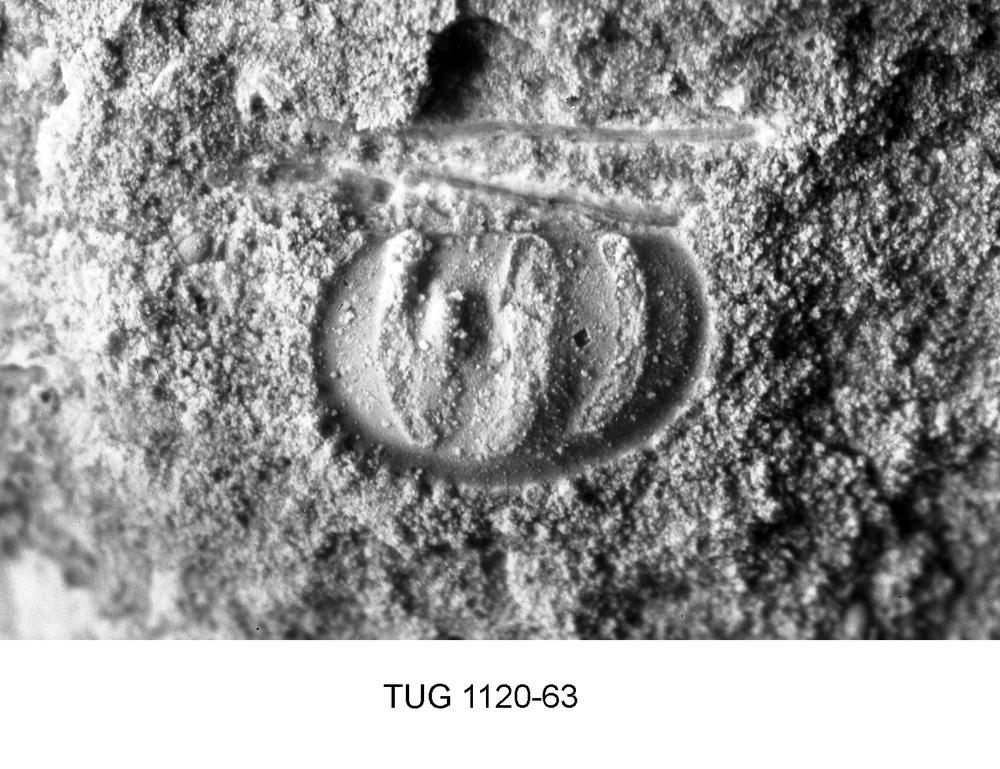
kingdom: Animalia
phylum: Arthropoda
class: Ostracoda
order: Palaeocopida
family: Ctenonotellidae
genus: Pectidolon
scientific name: Pectidolon perornata
